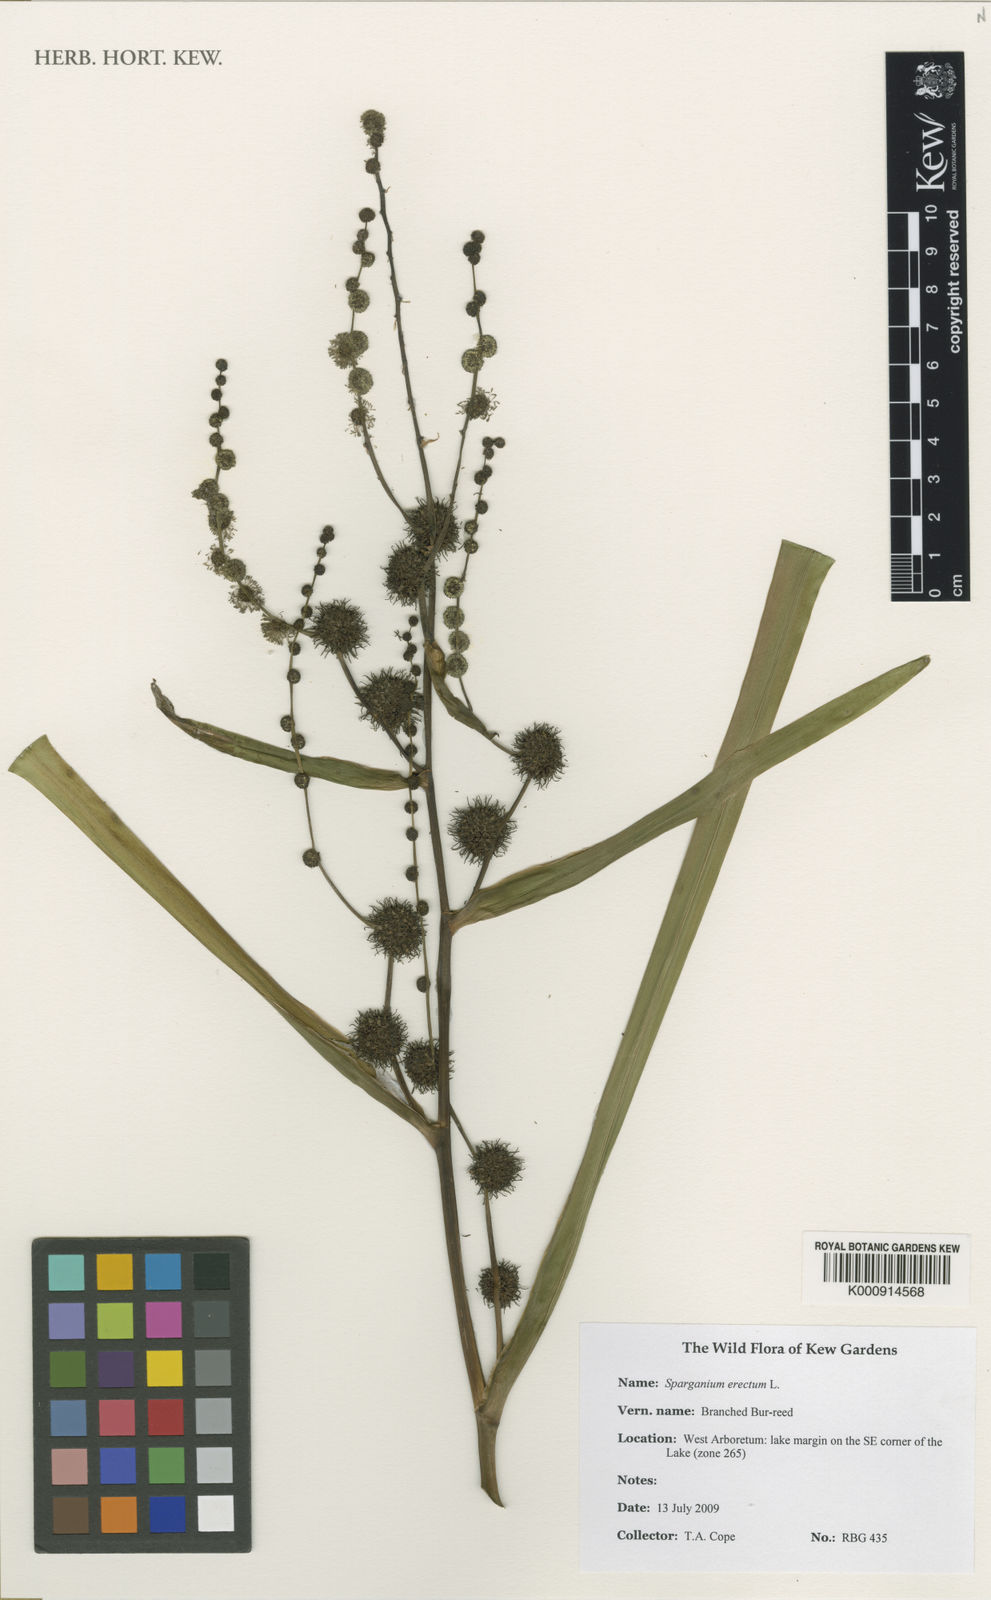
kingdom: Plantae
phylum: Tracheophyta
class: Liliopsida
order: Poales
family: Typhaceae
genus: Sparganium
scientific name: Sparganium erectum
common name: Branched bur-reed
